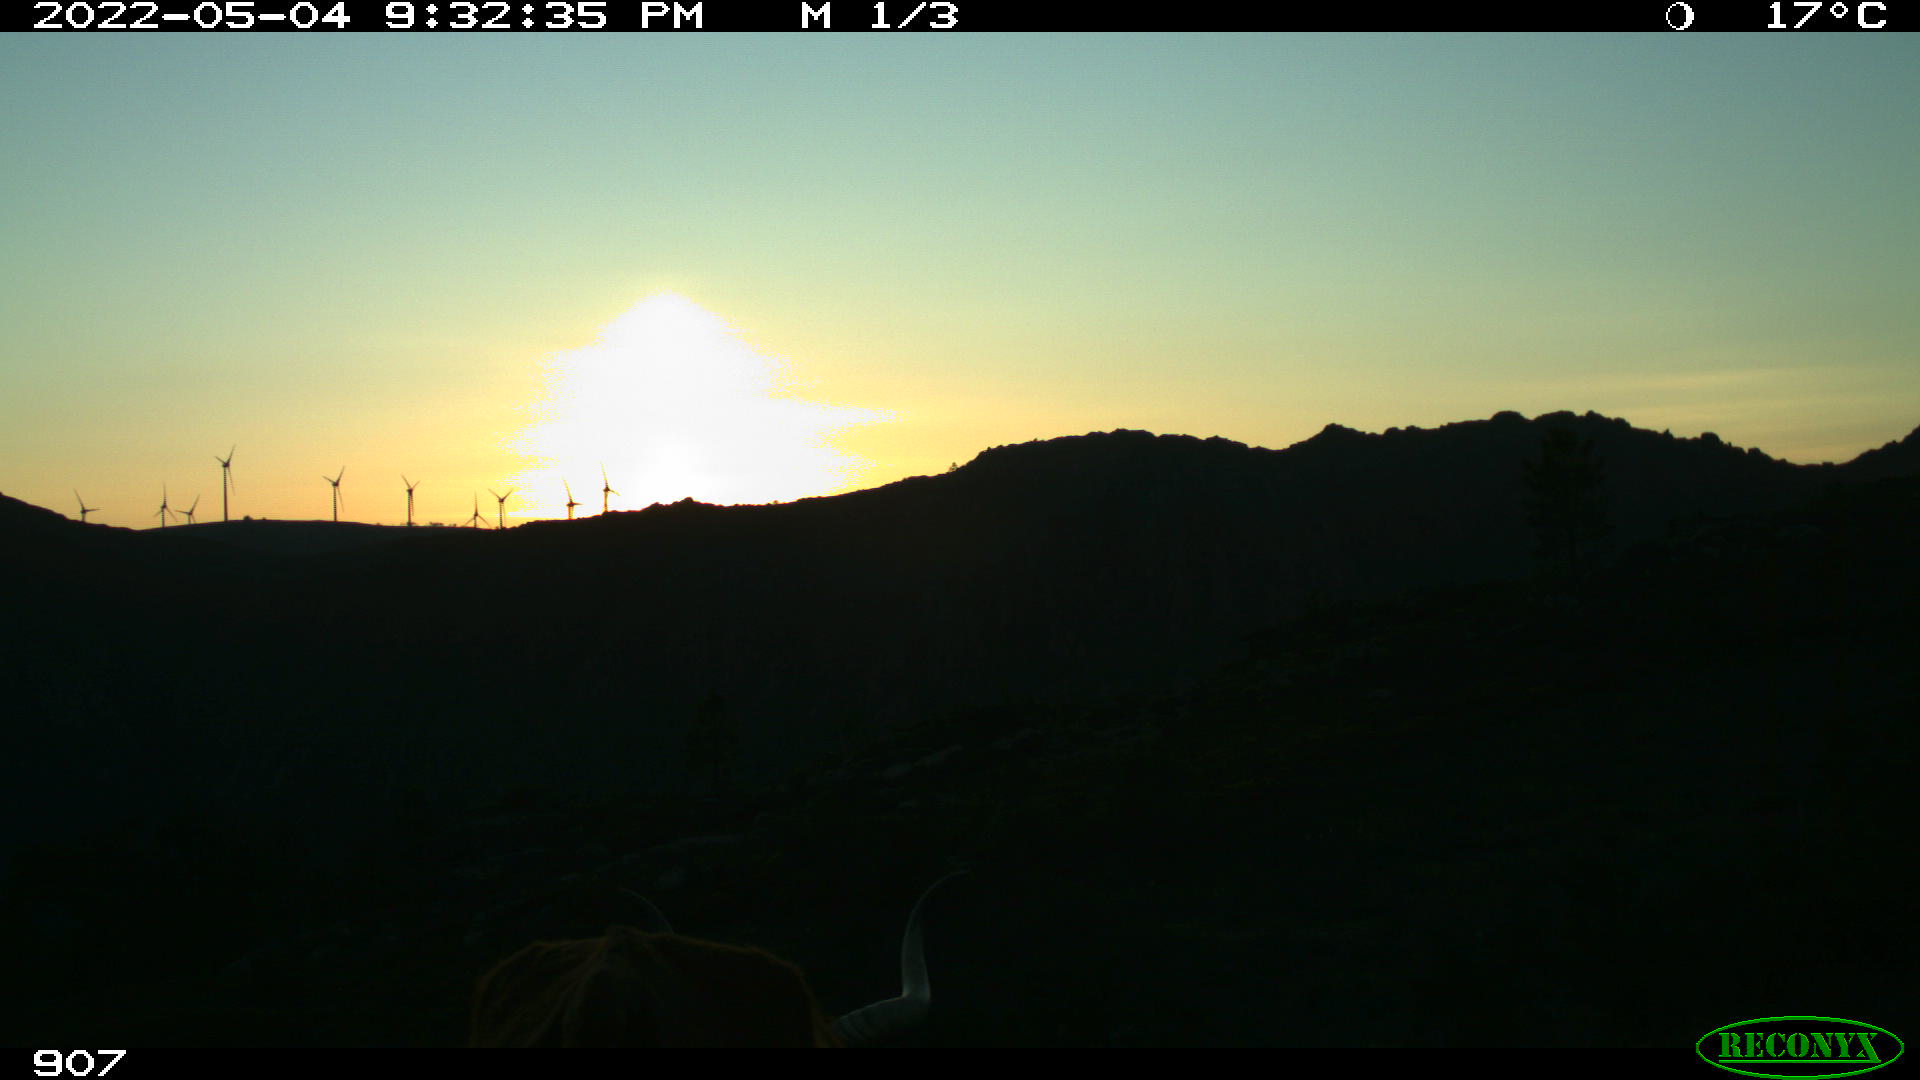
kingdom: Animalia
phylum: Chordata
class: Mammalia
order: Artiodactyla
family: Bovidae
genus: Bos
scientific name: Bos taurus
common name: Domesticated cattle
